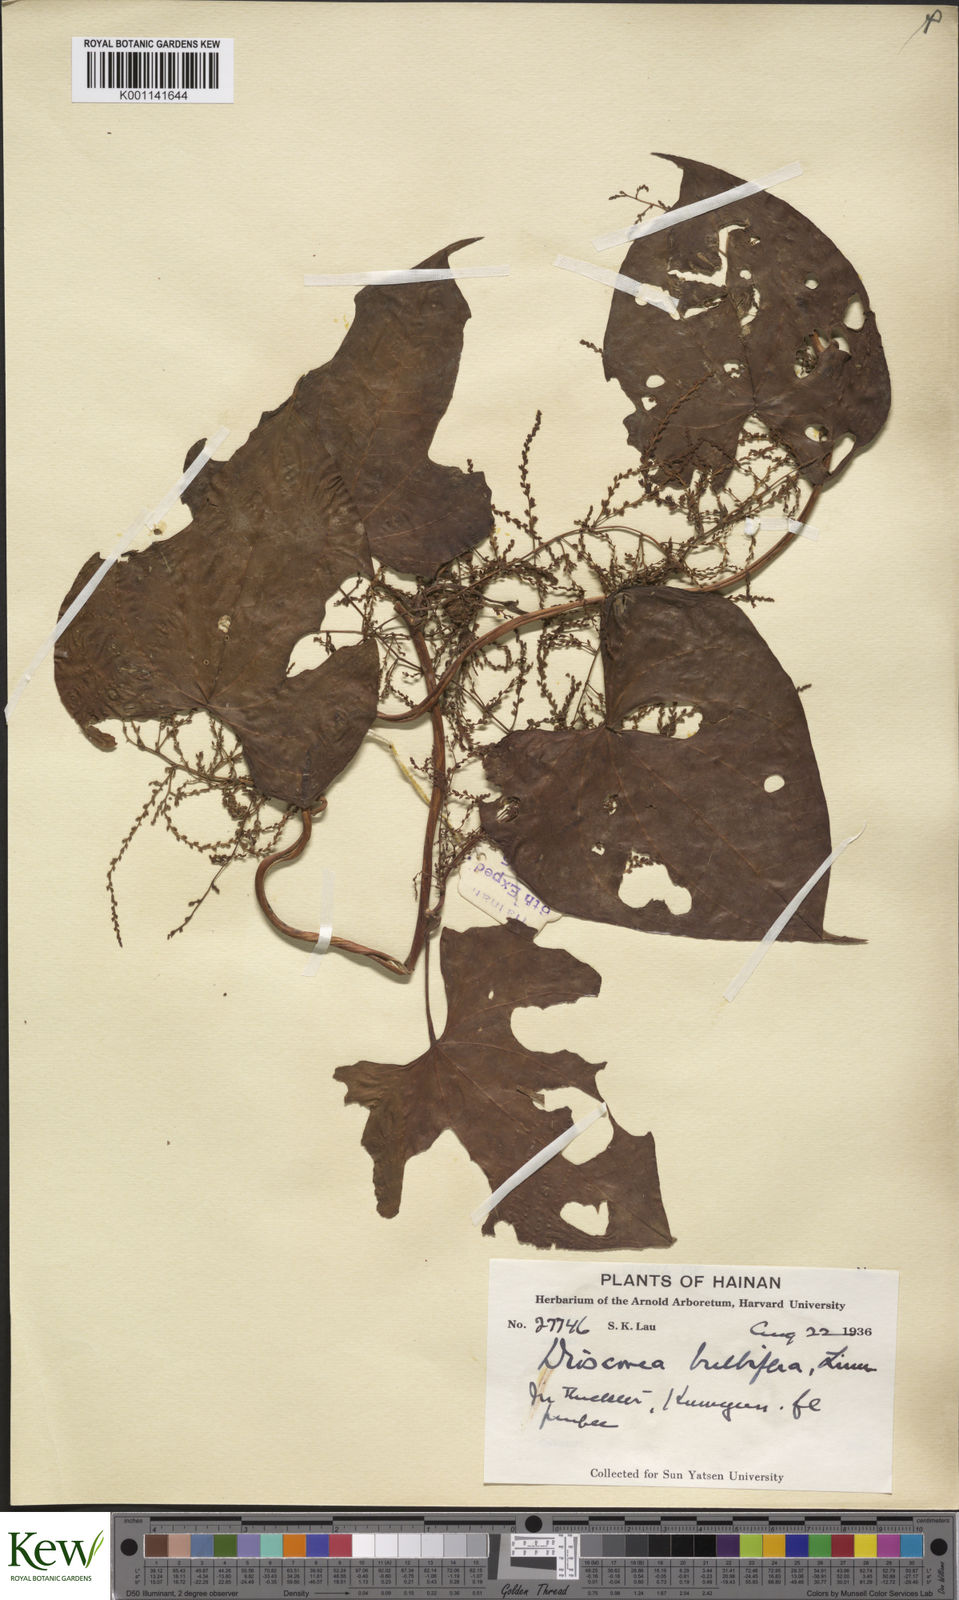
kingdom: Plantae
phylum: Tracheophyta
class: Liliopsida
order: Dioscoreales
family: Dioscoreaceae
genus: Dioscorea
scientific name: Dioscorea bulbifera
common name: Air yam
